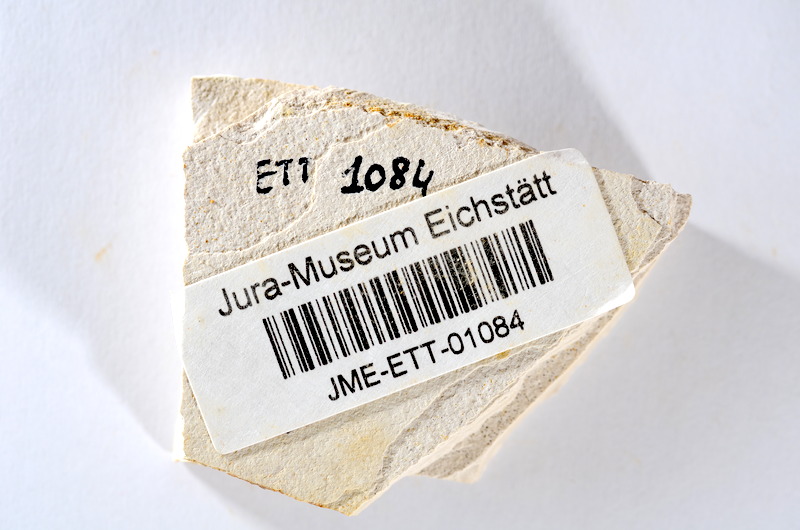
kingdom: Animalia
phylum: Chordata
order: Salmoniformes
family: Orthogonikleithridae
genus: Orthogonikleithrus
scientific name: Orthogonikleithrus hoelli
